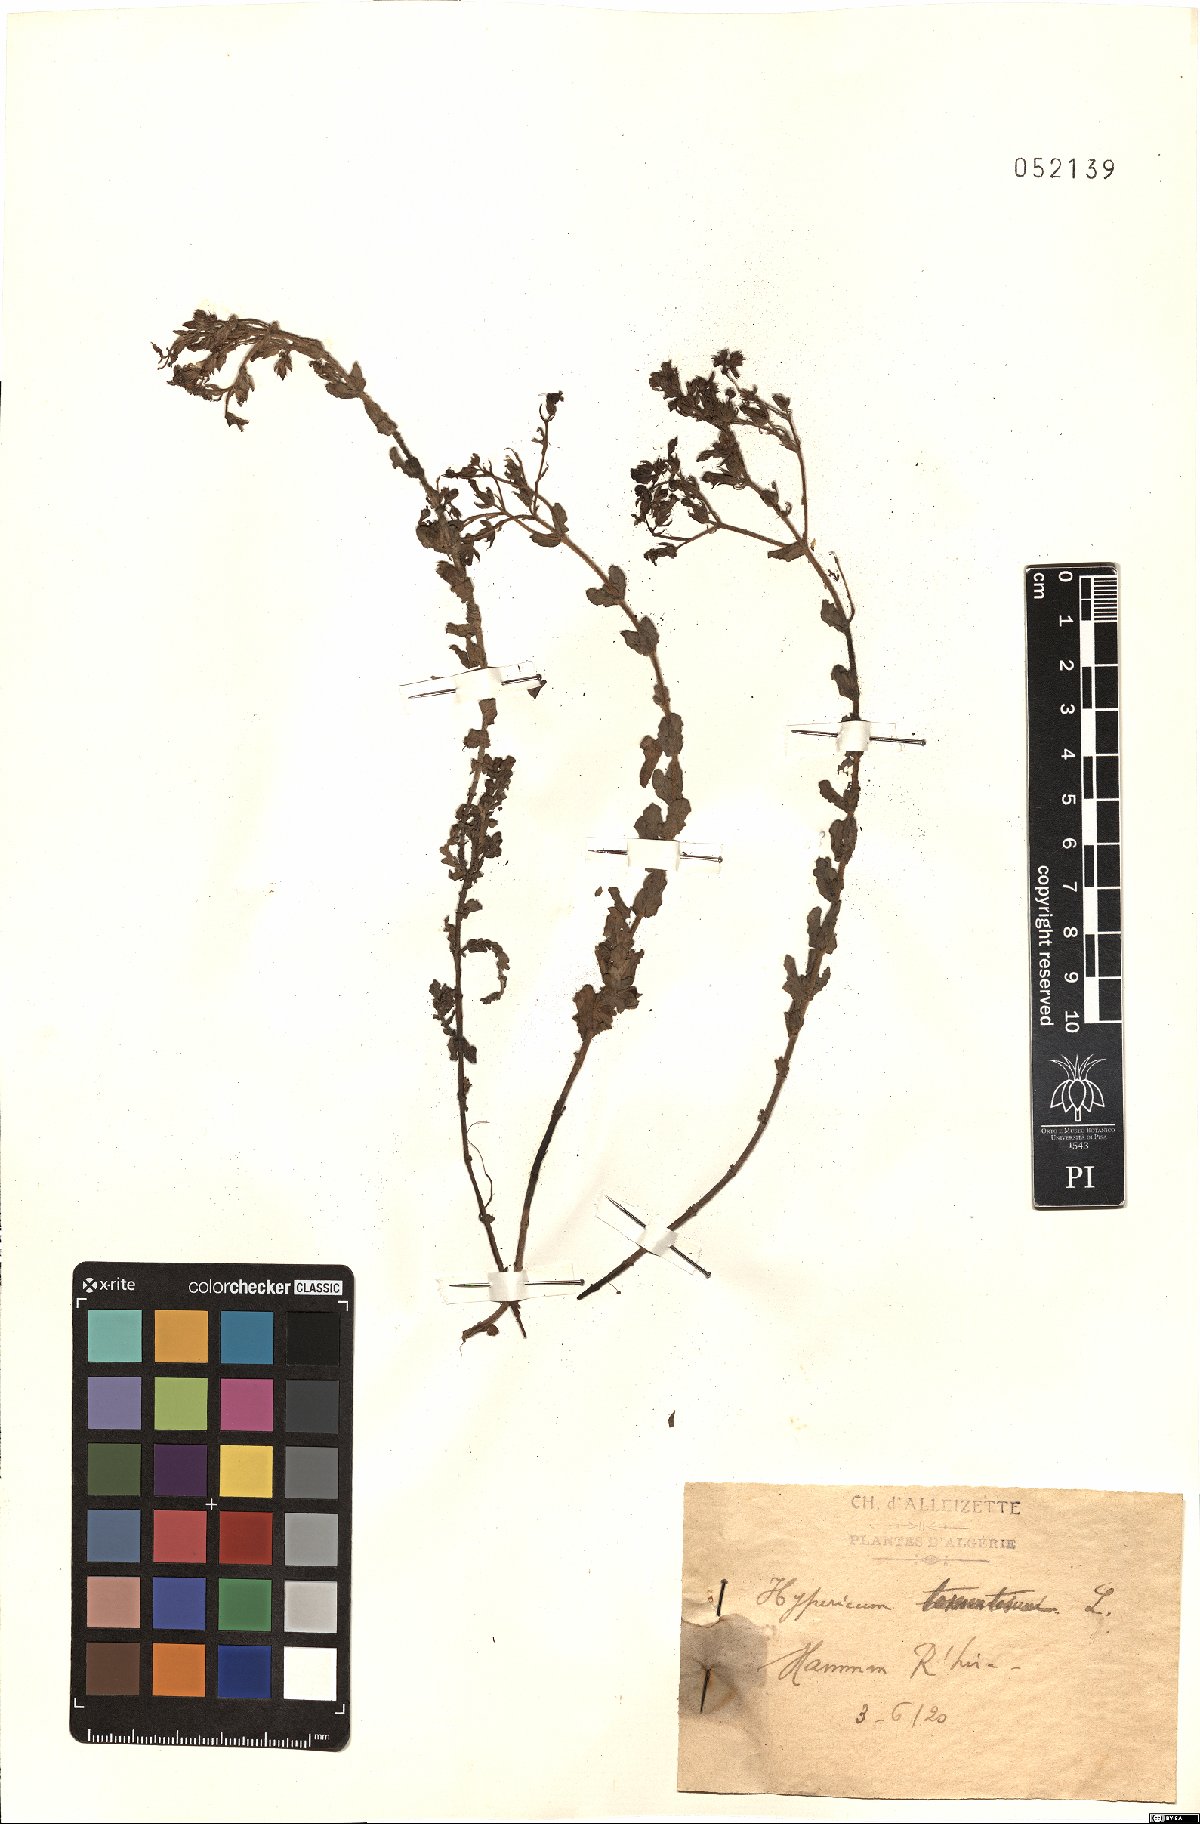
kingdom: Plantae
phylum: Tracheophyta
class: Magnoliopsida
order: Malpighiales
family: Hypericaceae
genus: Hypericum
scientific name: Hypericum tomentosum
